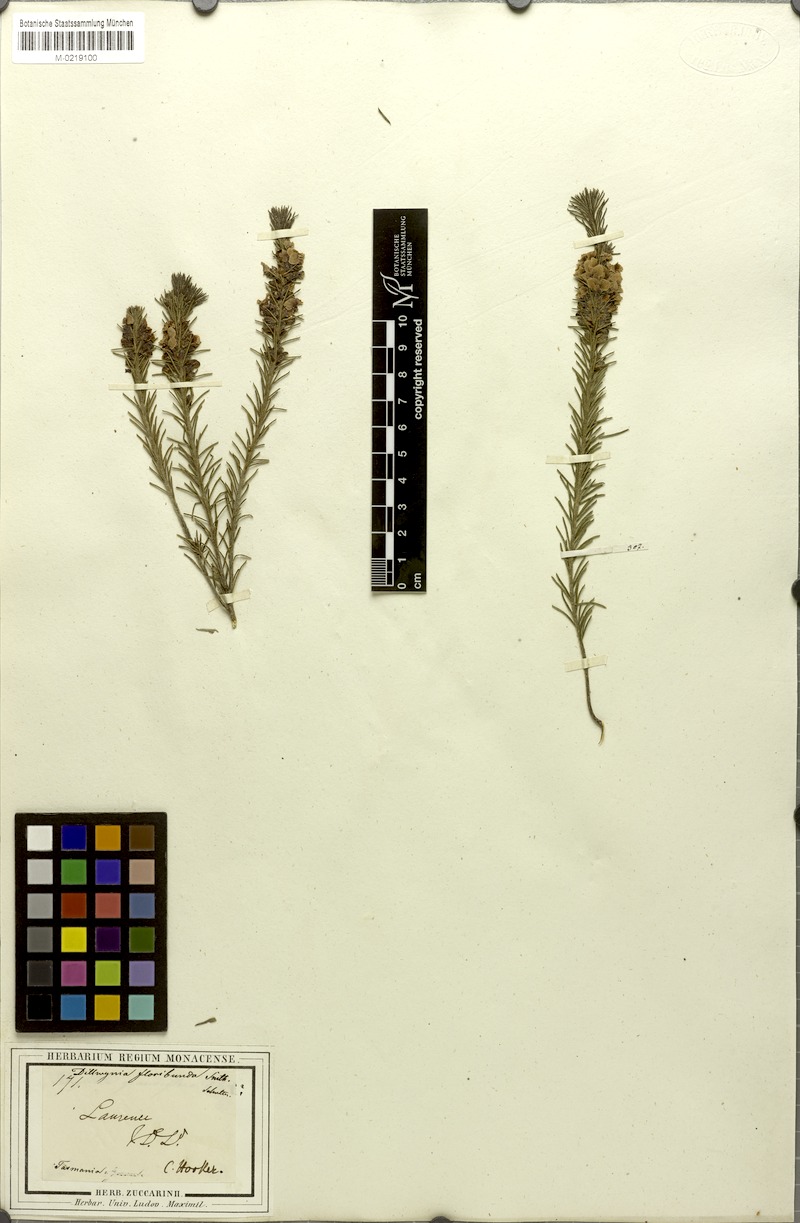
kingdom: Plantae
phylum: Tracheophyta
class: Magnoliopsida
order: Fabales
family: Fabaceae
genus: Dillwynia
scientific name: Dillwynia floribunda
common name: Eggs-and-bacon
